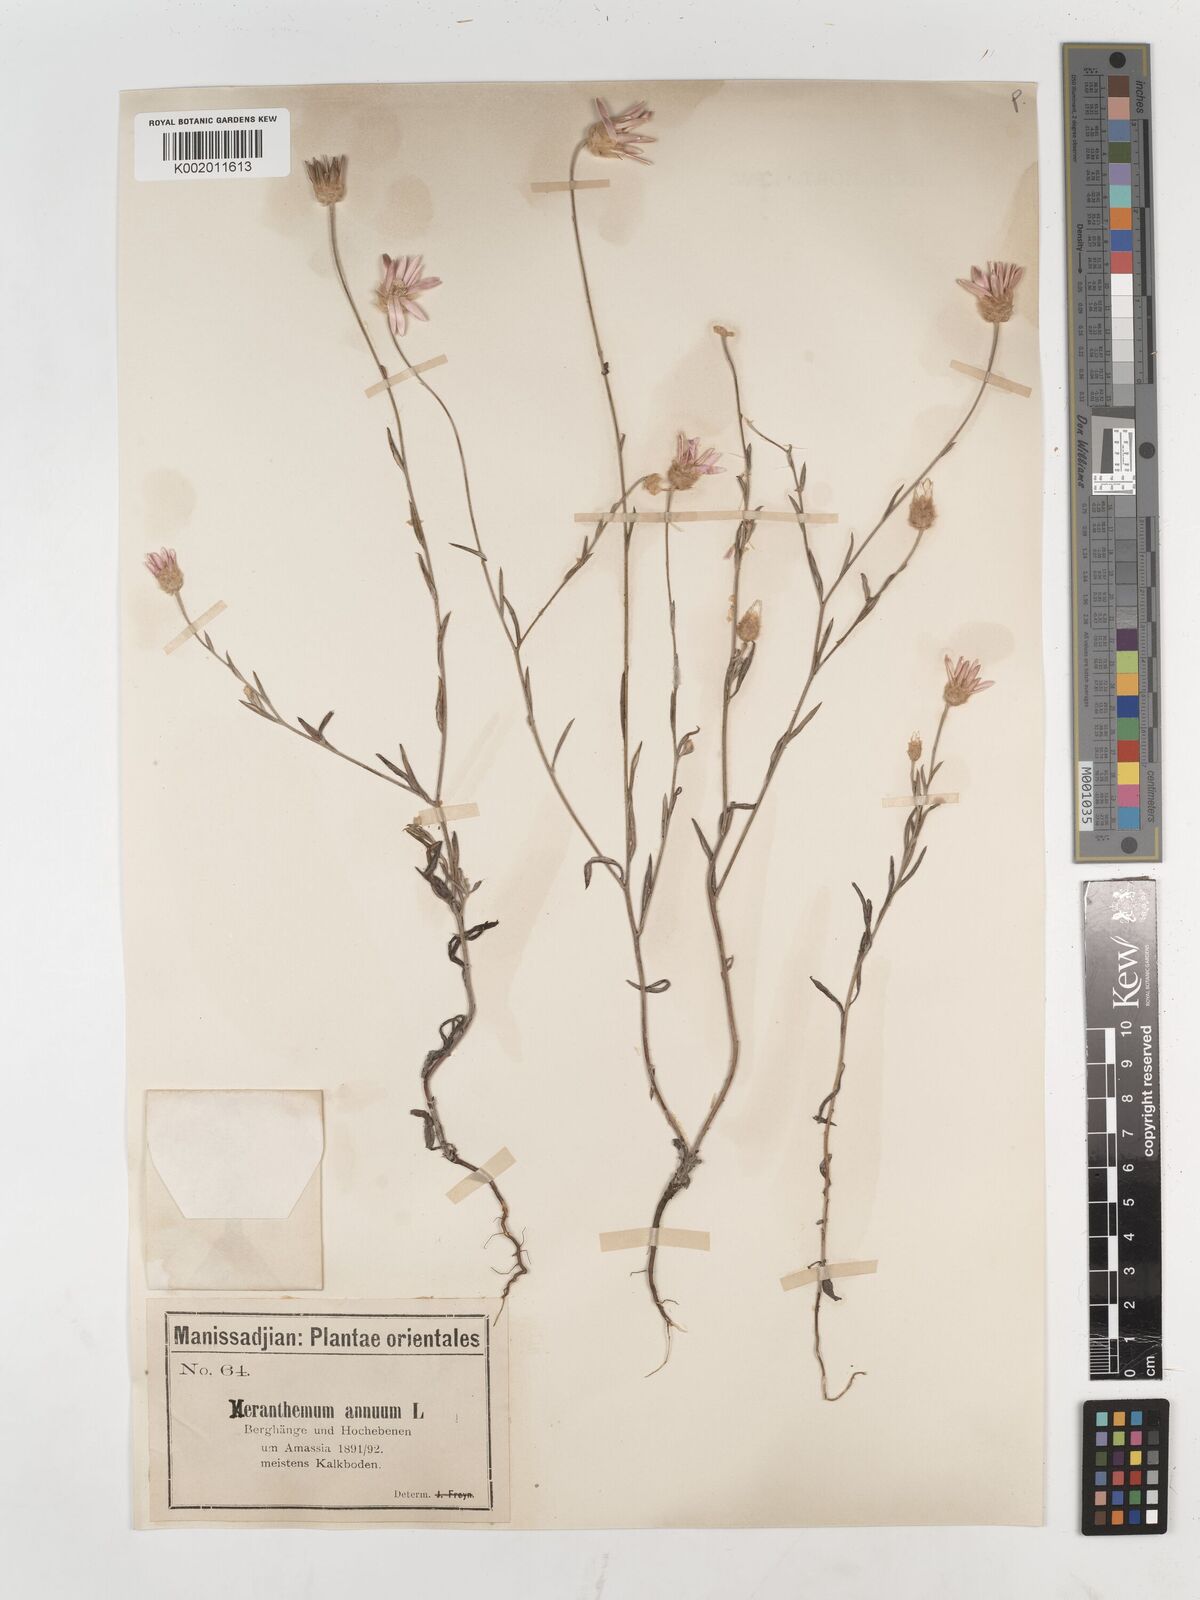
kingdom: Plantae
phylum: Tracheophyta
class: Magnoliopsida
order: Asterales
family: Asteraceae
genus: Xeranthemum
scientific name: Xeranthemum annuum
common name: Immortelle
